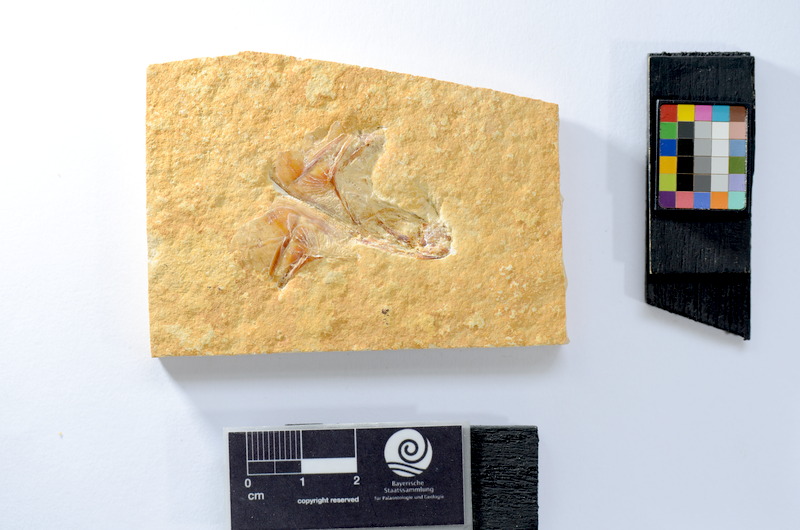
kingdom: Animalia
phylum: Chordata
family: Ascalaboidae
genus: Tharsis
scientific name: Tharsis dubius
